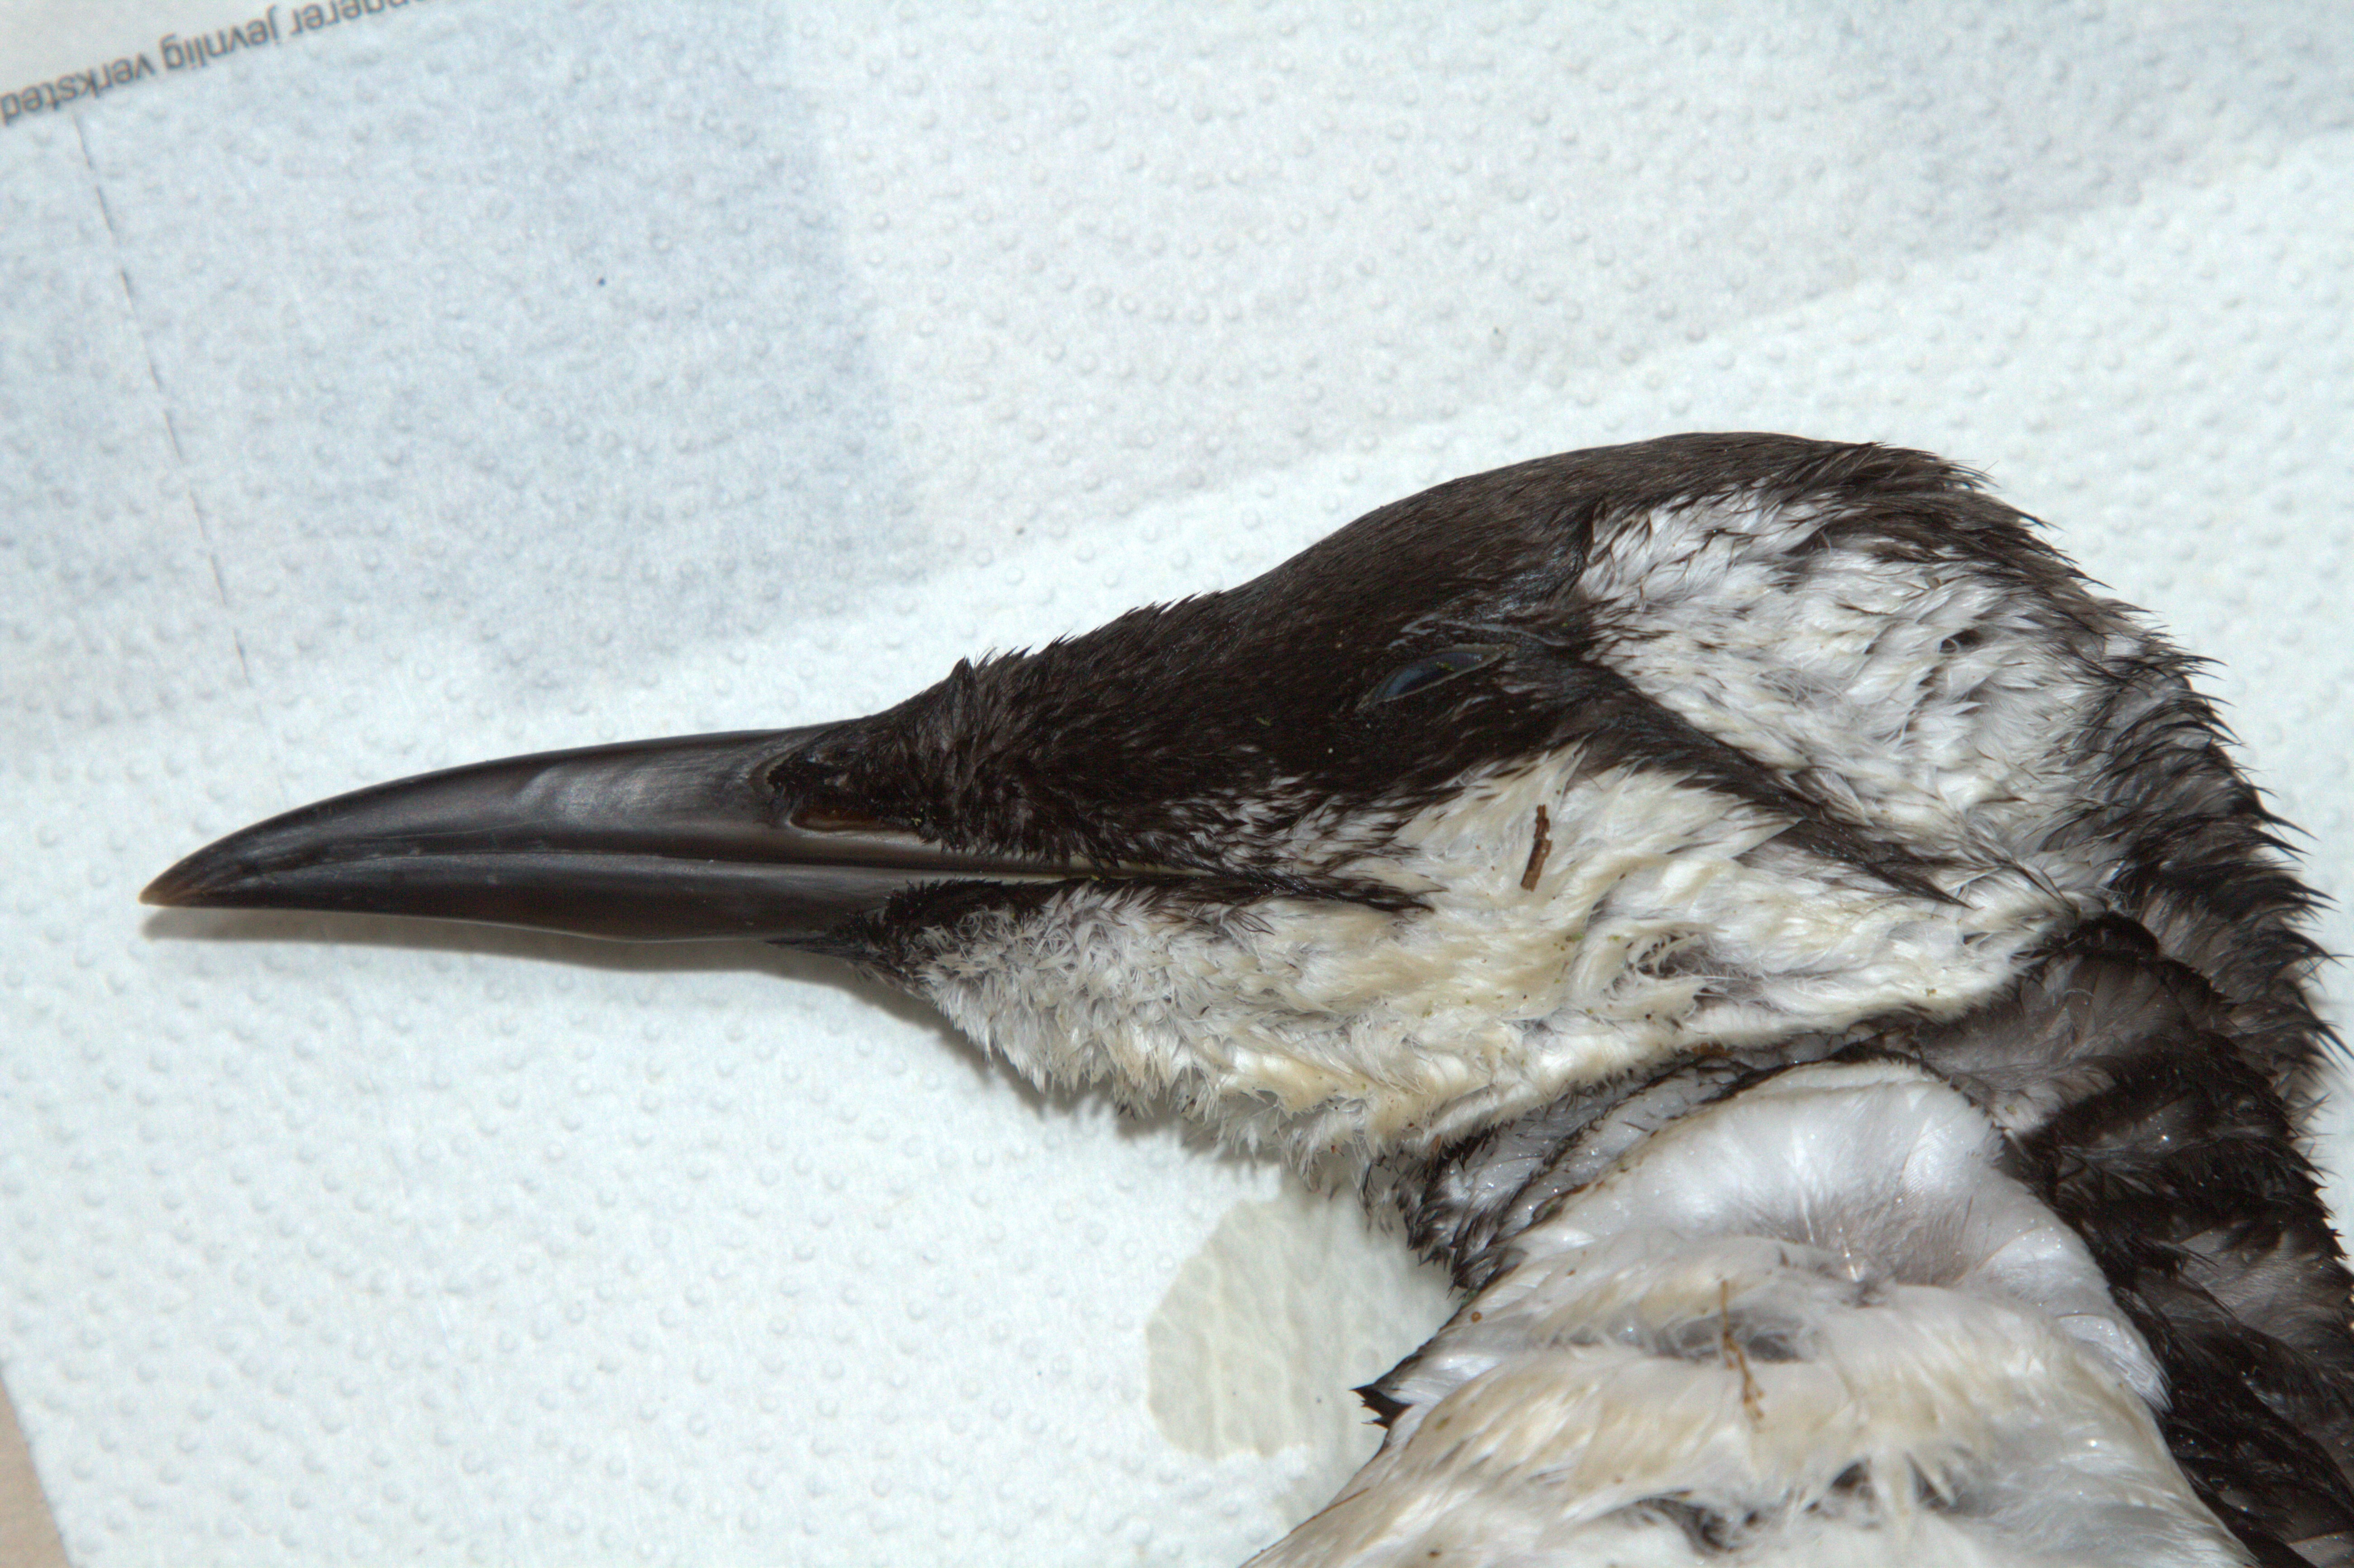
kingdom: Animalia
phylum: Chordata
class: Aves
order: Charadriiformes
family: Alcidae
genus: Uria
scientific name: Uria aalge
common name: Common murre
